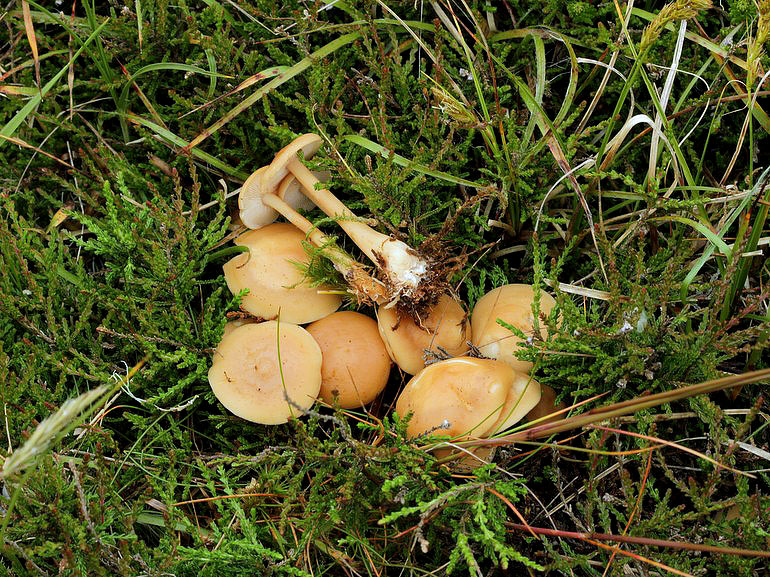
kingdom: Fungi
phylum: Basidiomycota
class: Agaricomycetes
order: Agaricales
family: Omphalotaceae
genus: Gymnopus
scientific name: Gymnopus aquosus
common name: bleg fladhat
